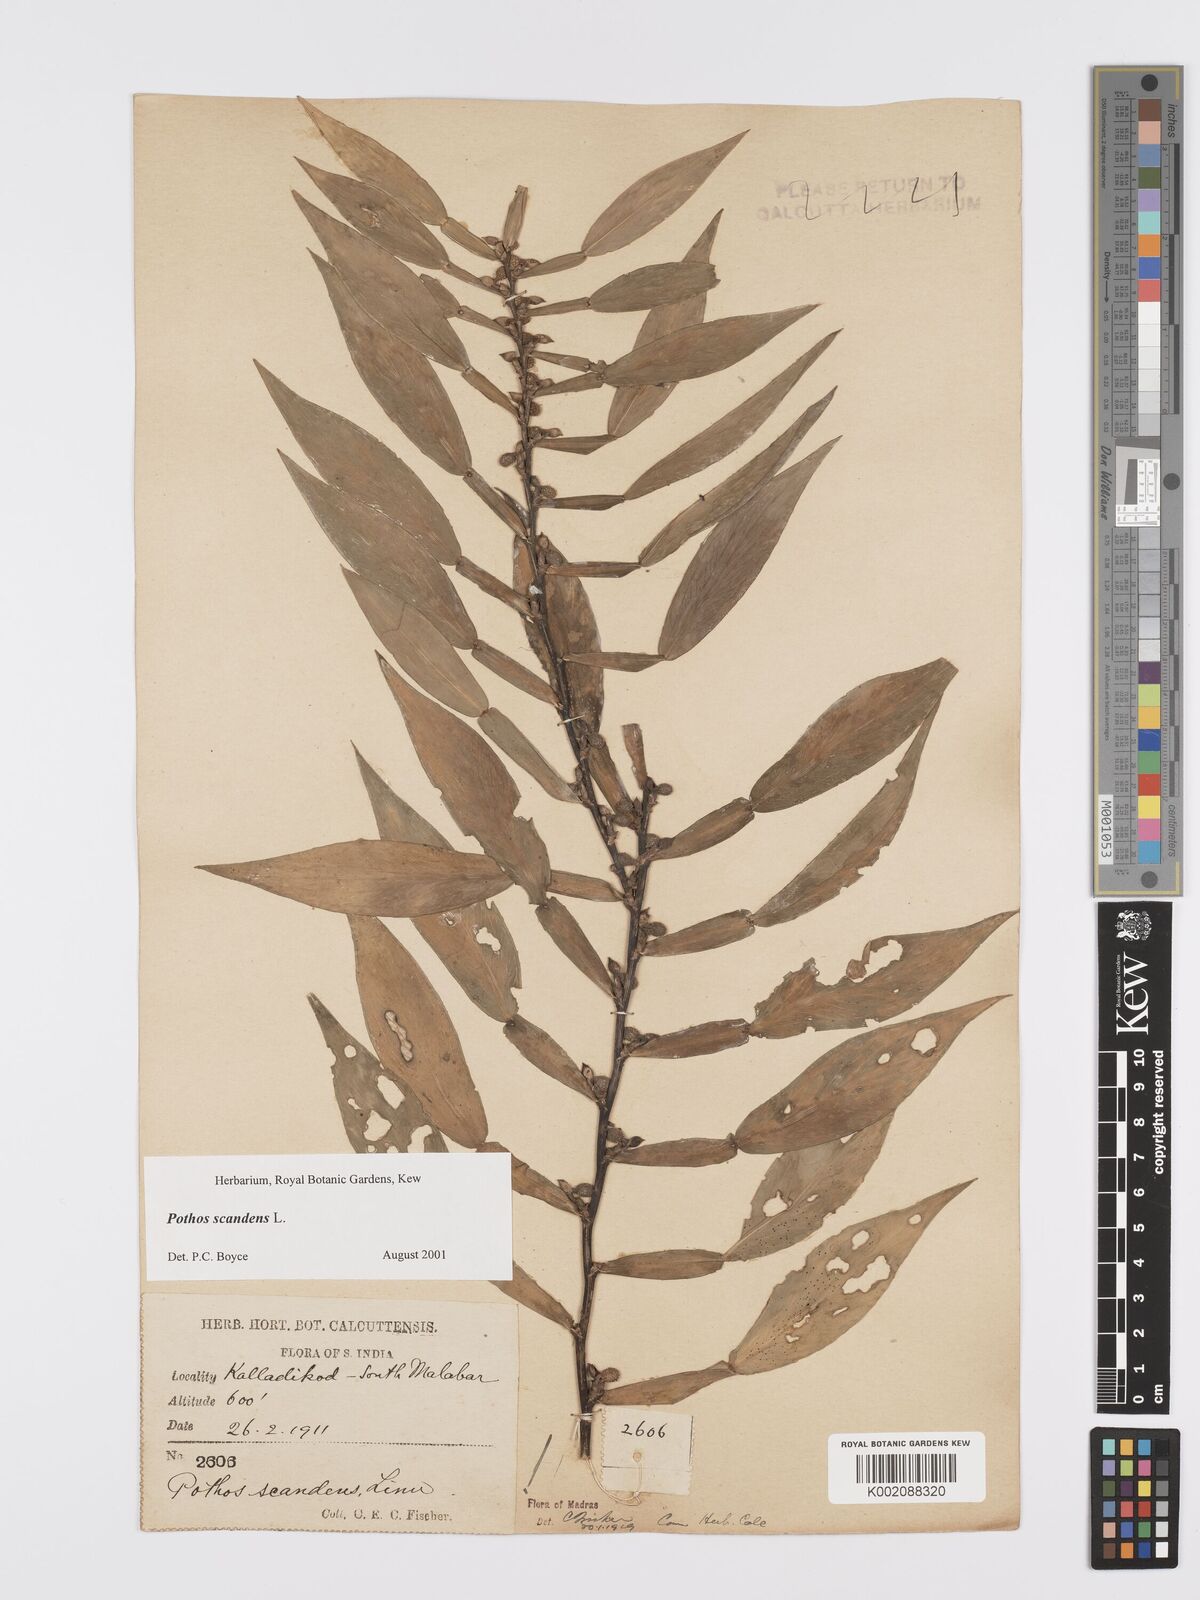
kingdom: Plantae
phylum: Tracheophyta
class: Liliopsida
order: Alismatales
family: Araceae
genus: Pothos
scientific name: Pothos scandens
